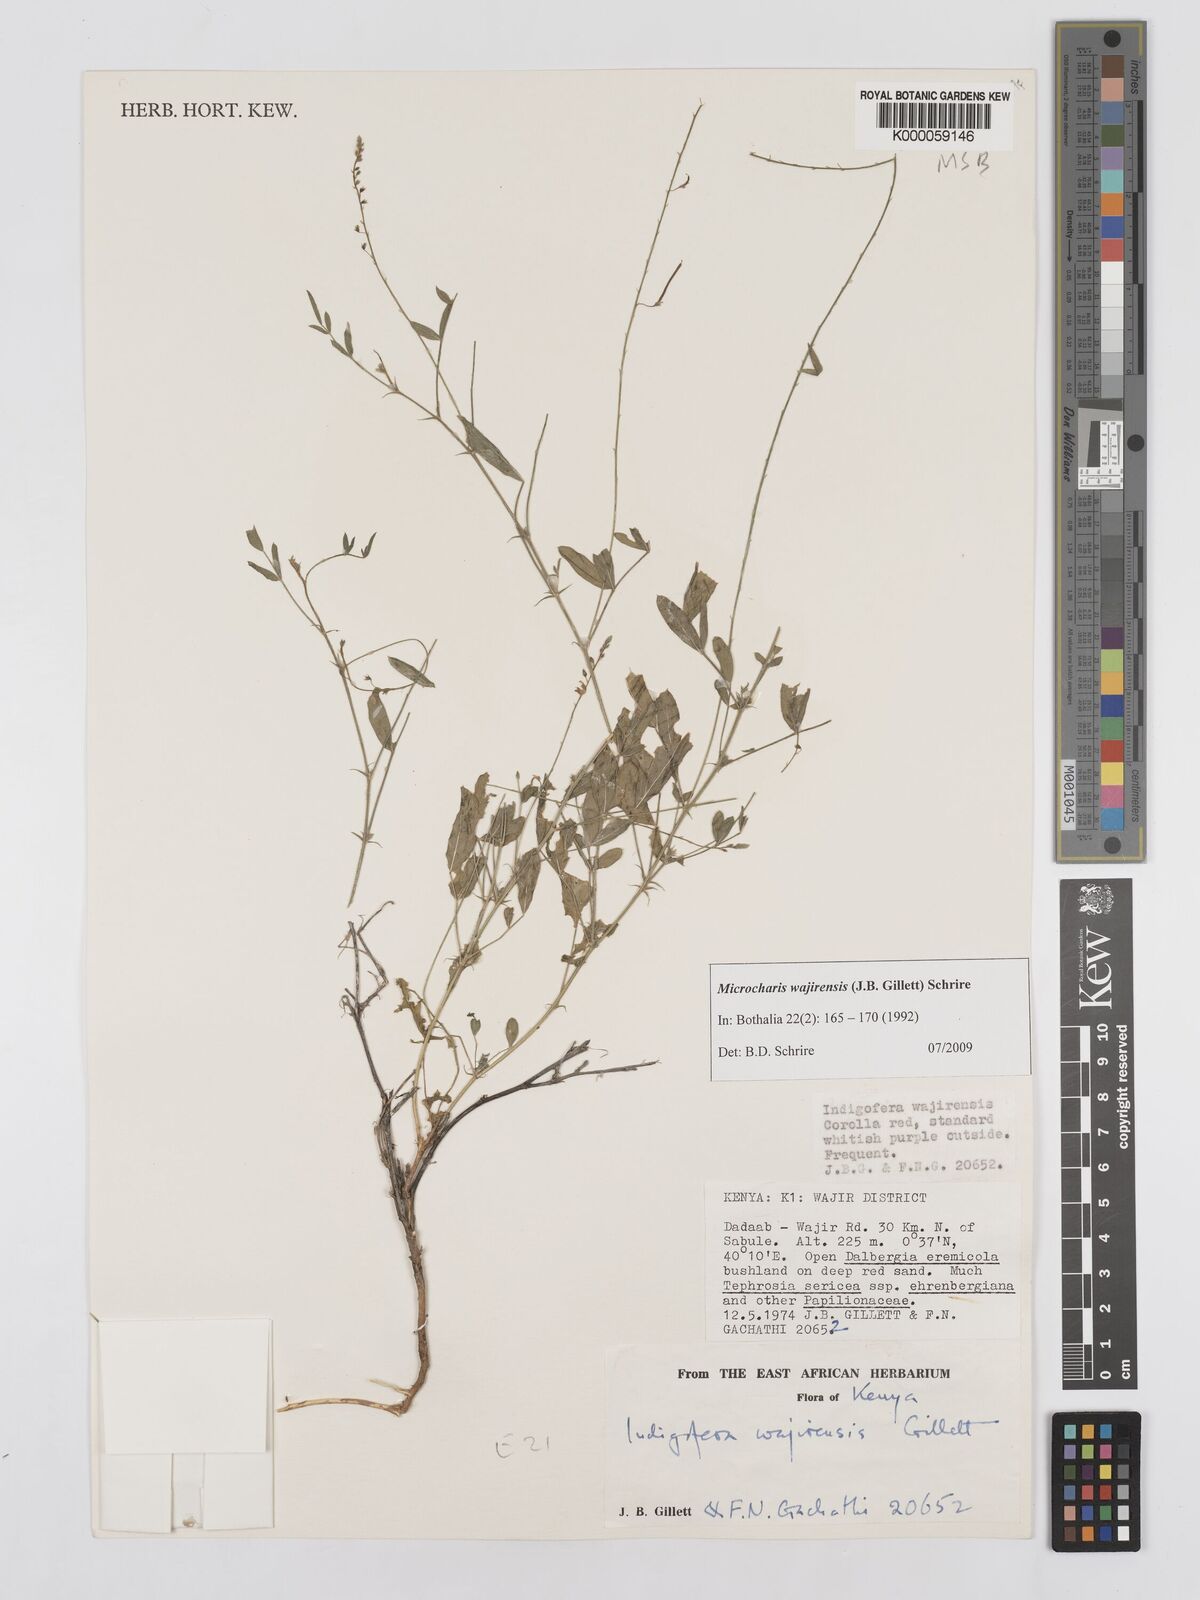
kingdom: Plantae
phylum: Tracheophyta
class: Magnoliopsida
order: Fabales
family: Fabaceae
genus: Microcharis
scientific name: Microcharis wajirensis
